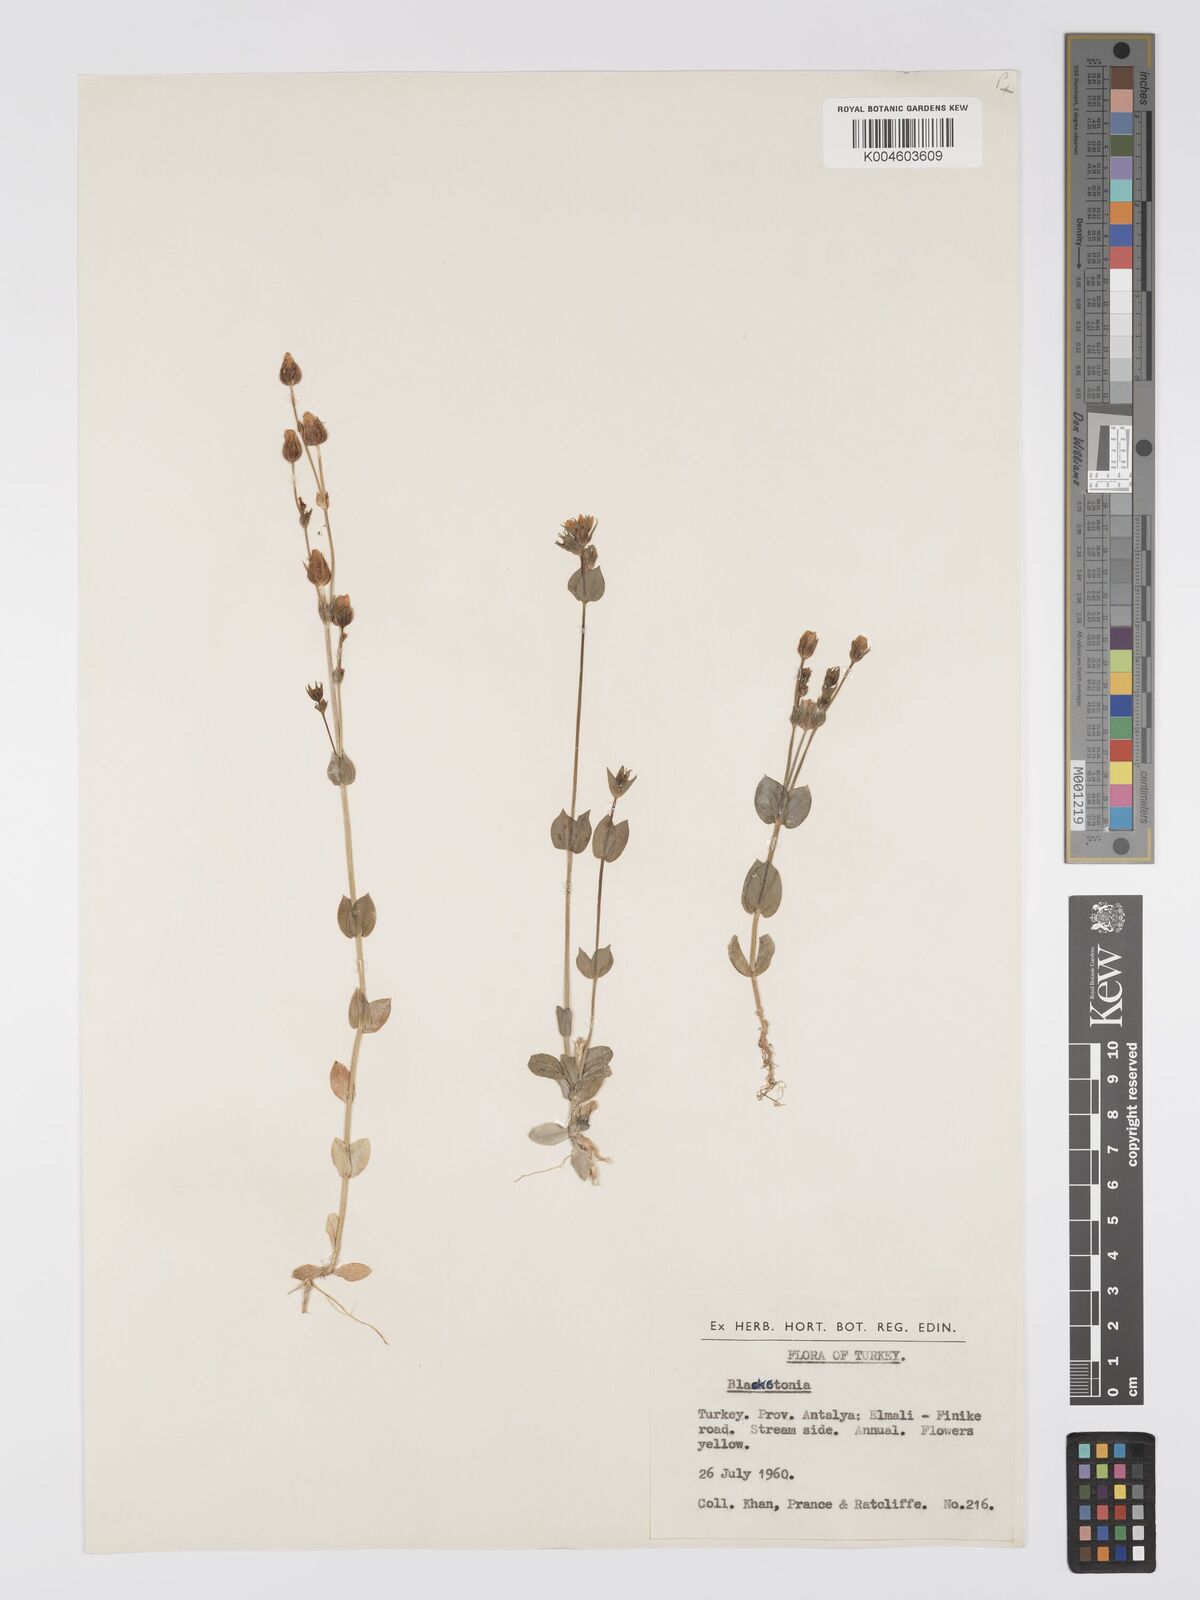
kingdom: Plantae
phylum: Tracheophyta
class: Magnoliopsida
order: Gentianales
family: Gentianaceae
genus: Blackstonia
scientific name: Blackstonia acuminata
